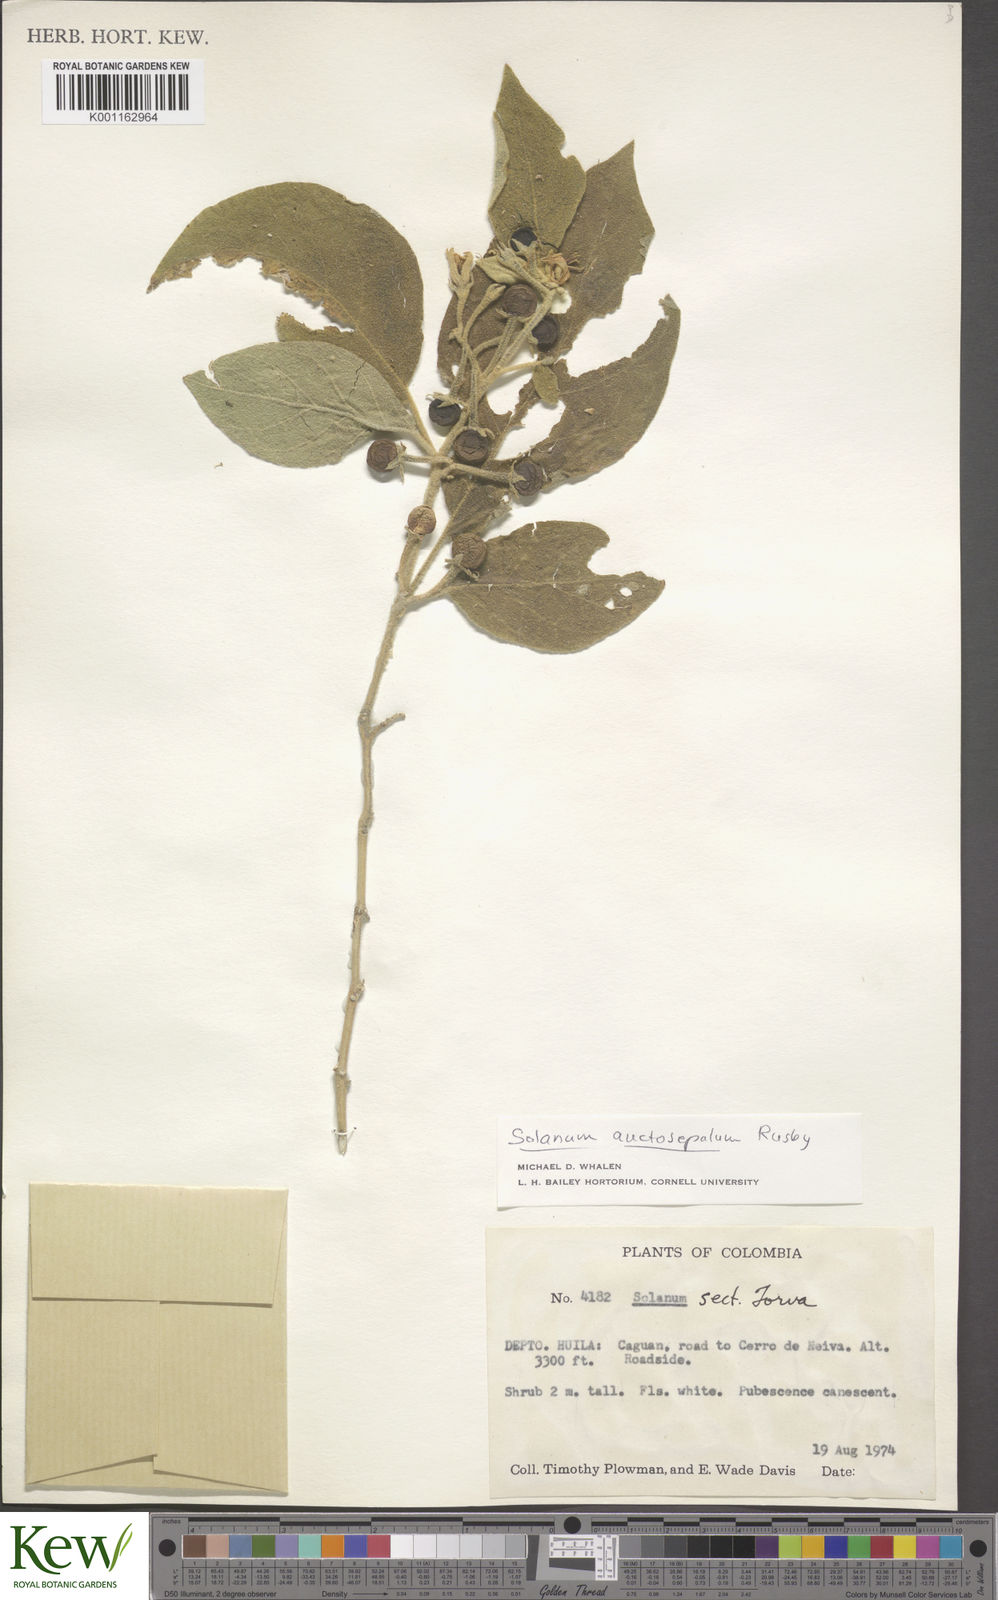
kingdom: Plantae
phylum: Tracheophyta
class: Magnoliopsida
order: Solanales
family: Solanaceae
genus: Solanum
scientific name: Solanum stellatiglandulosum
